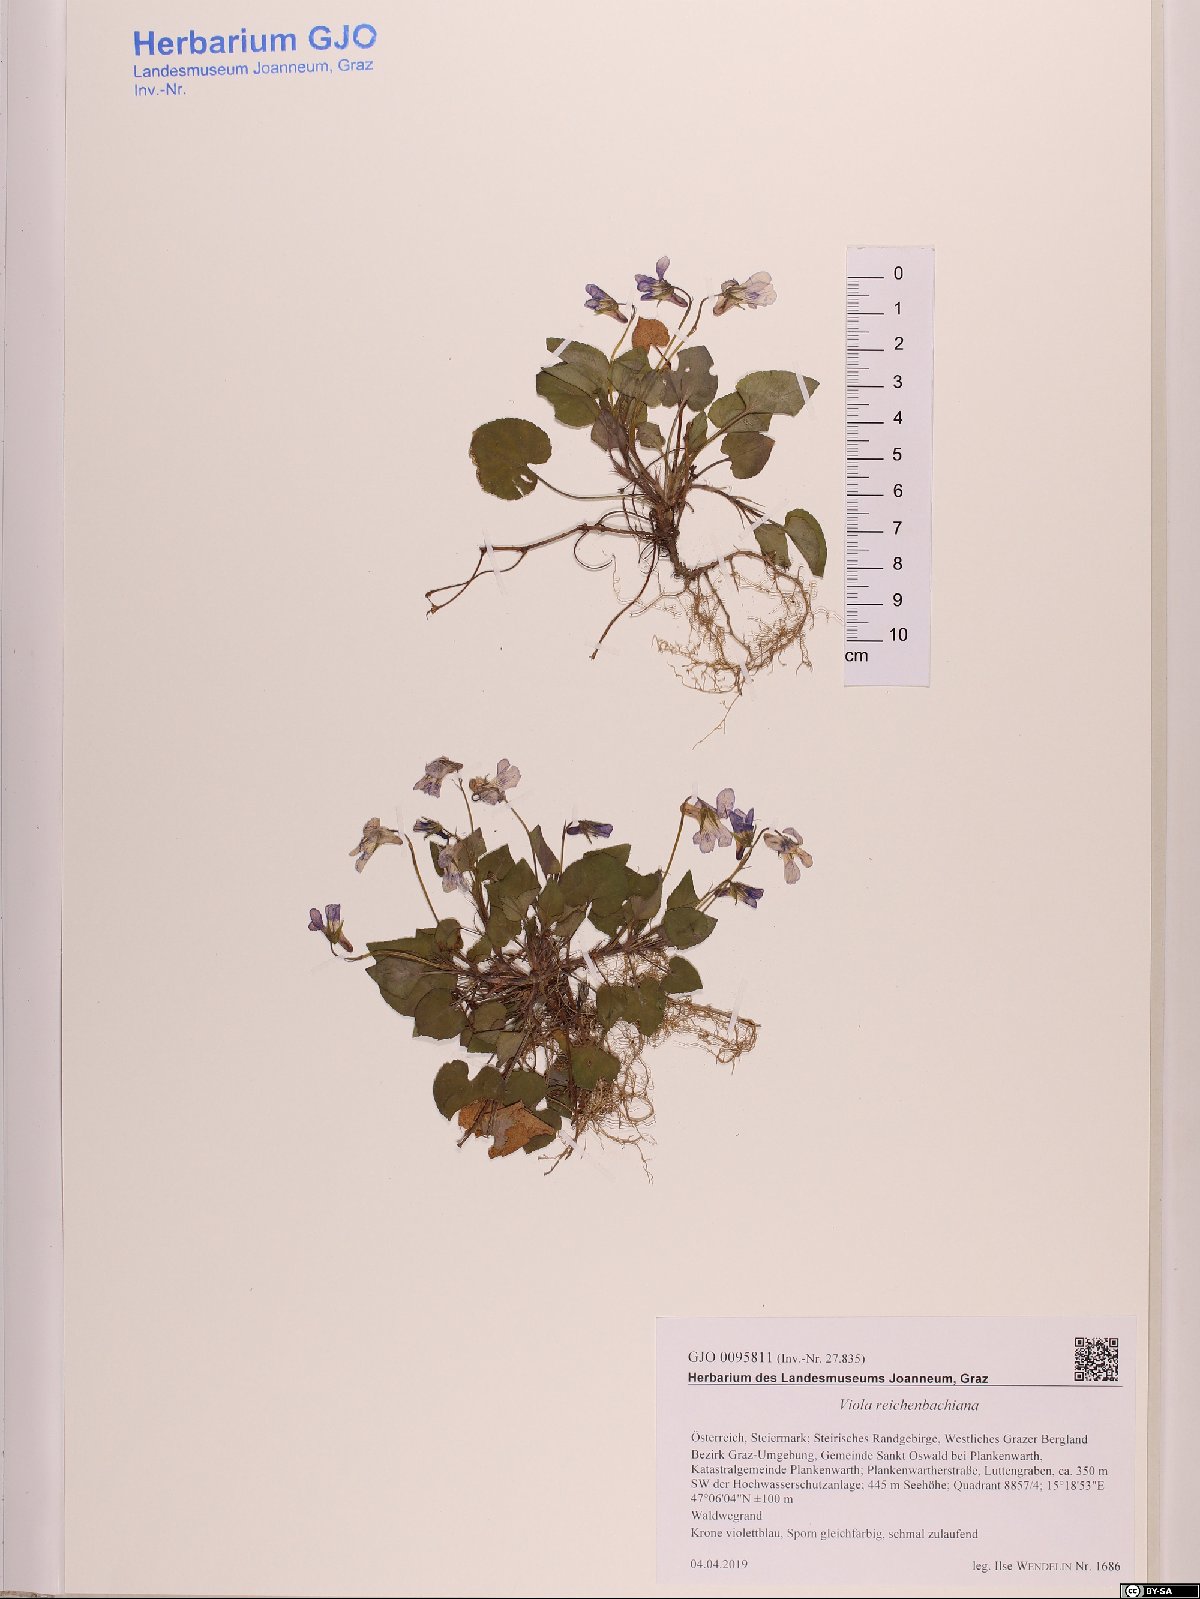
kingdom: Plantae
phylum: Tracheophyta
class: Magnoliopsida
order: Malpighiales
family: Violaceae
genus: Viola
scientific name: Viola reichenbachiana
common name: Early dog-violet
